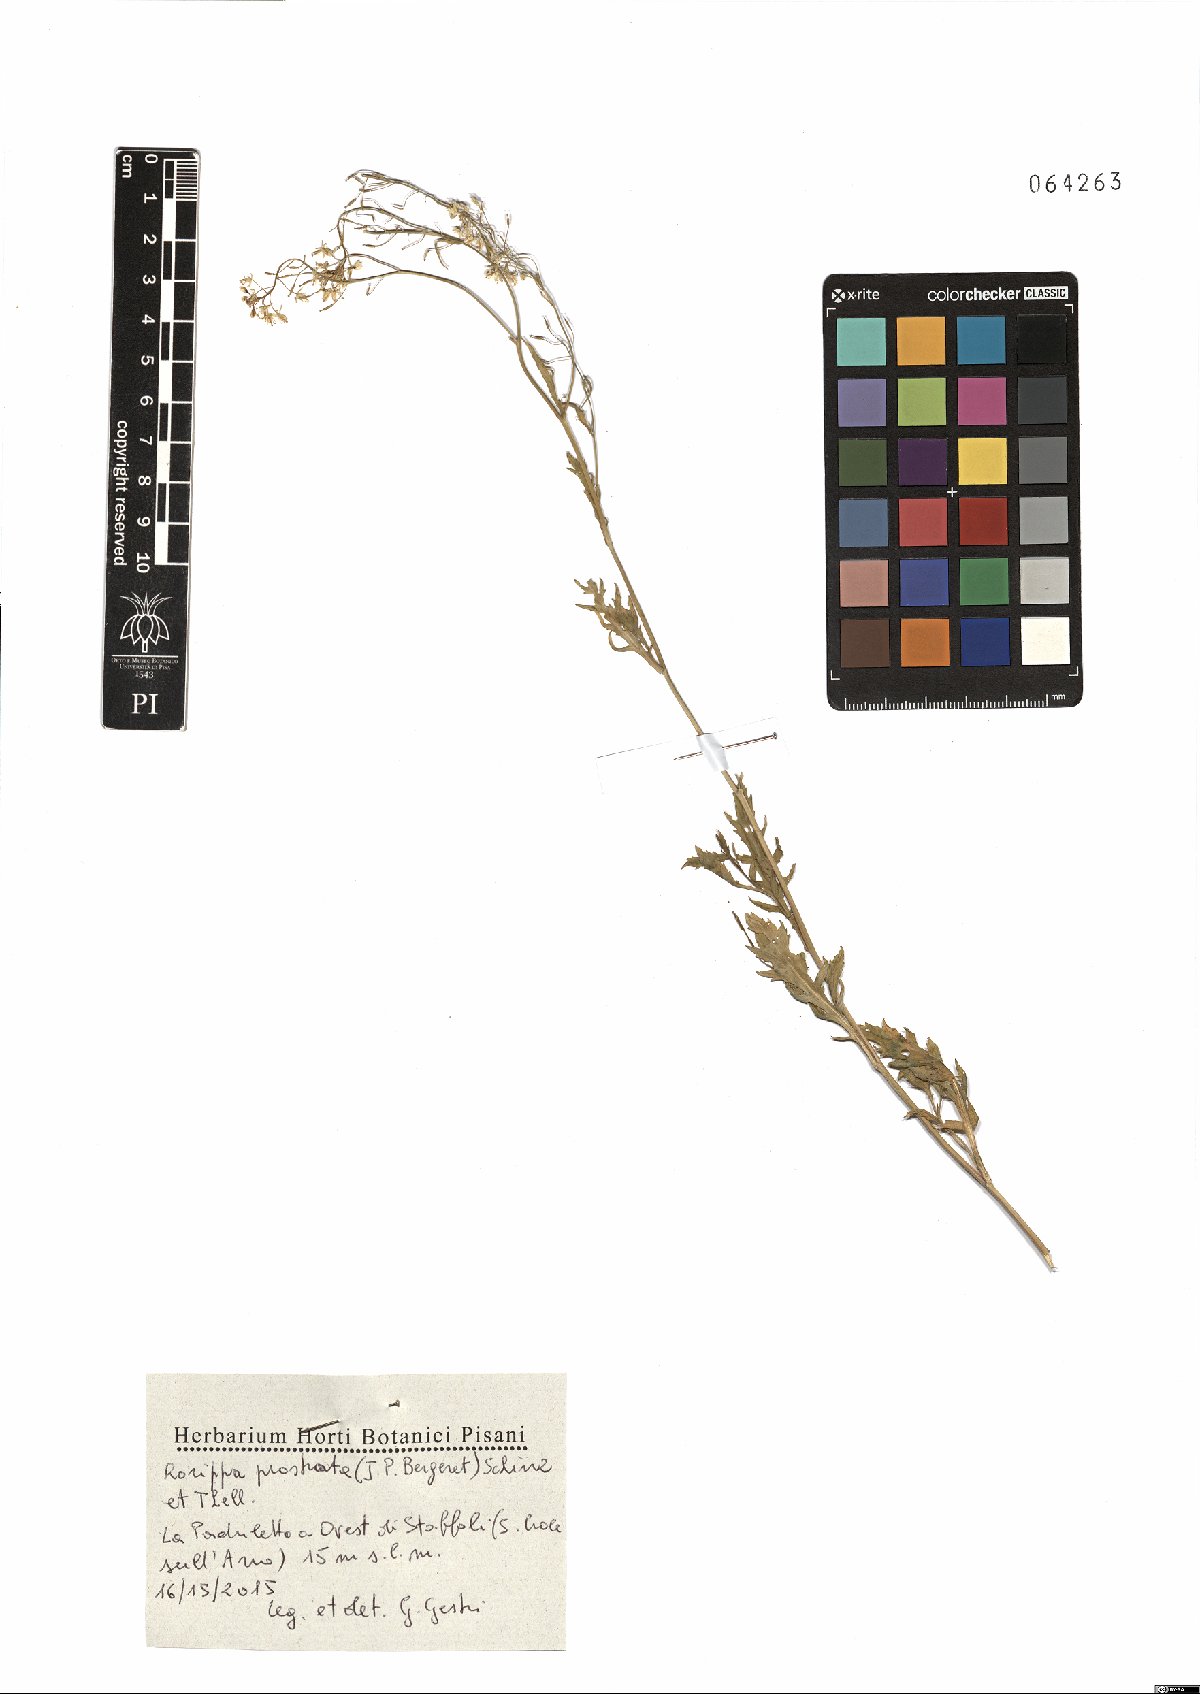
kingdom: Plantae
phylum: Tracheophyta
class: Magnoliopsida
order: Brassicales
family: Brassicaceae
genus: Rorippa
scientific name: Rorippa anceps
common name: Rorippa
